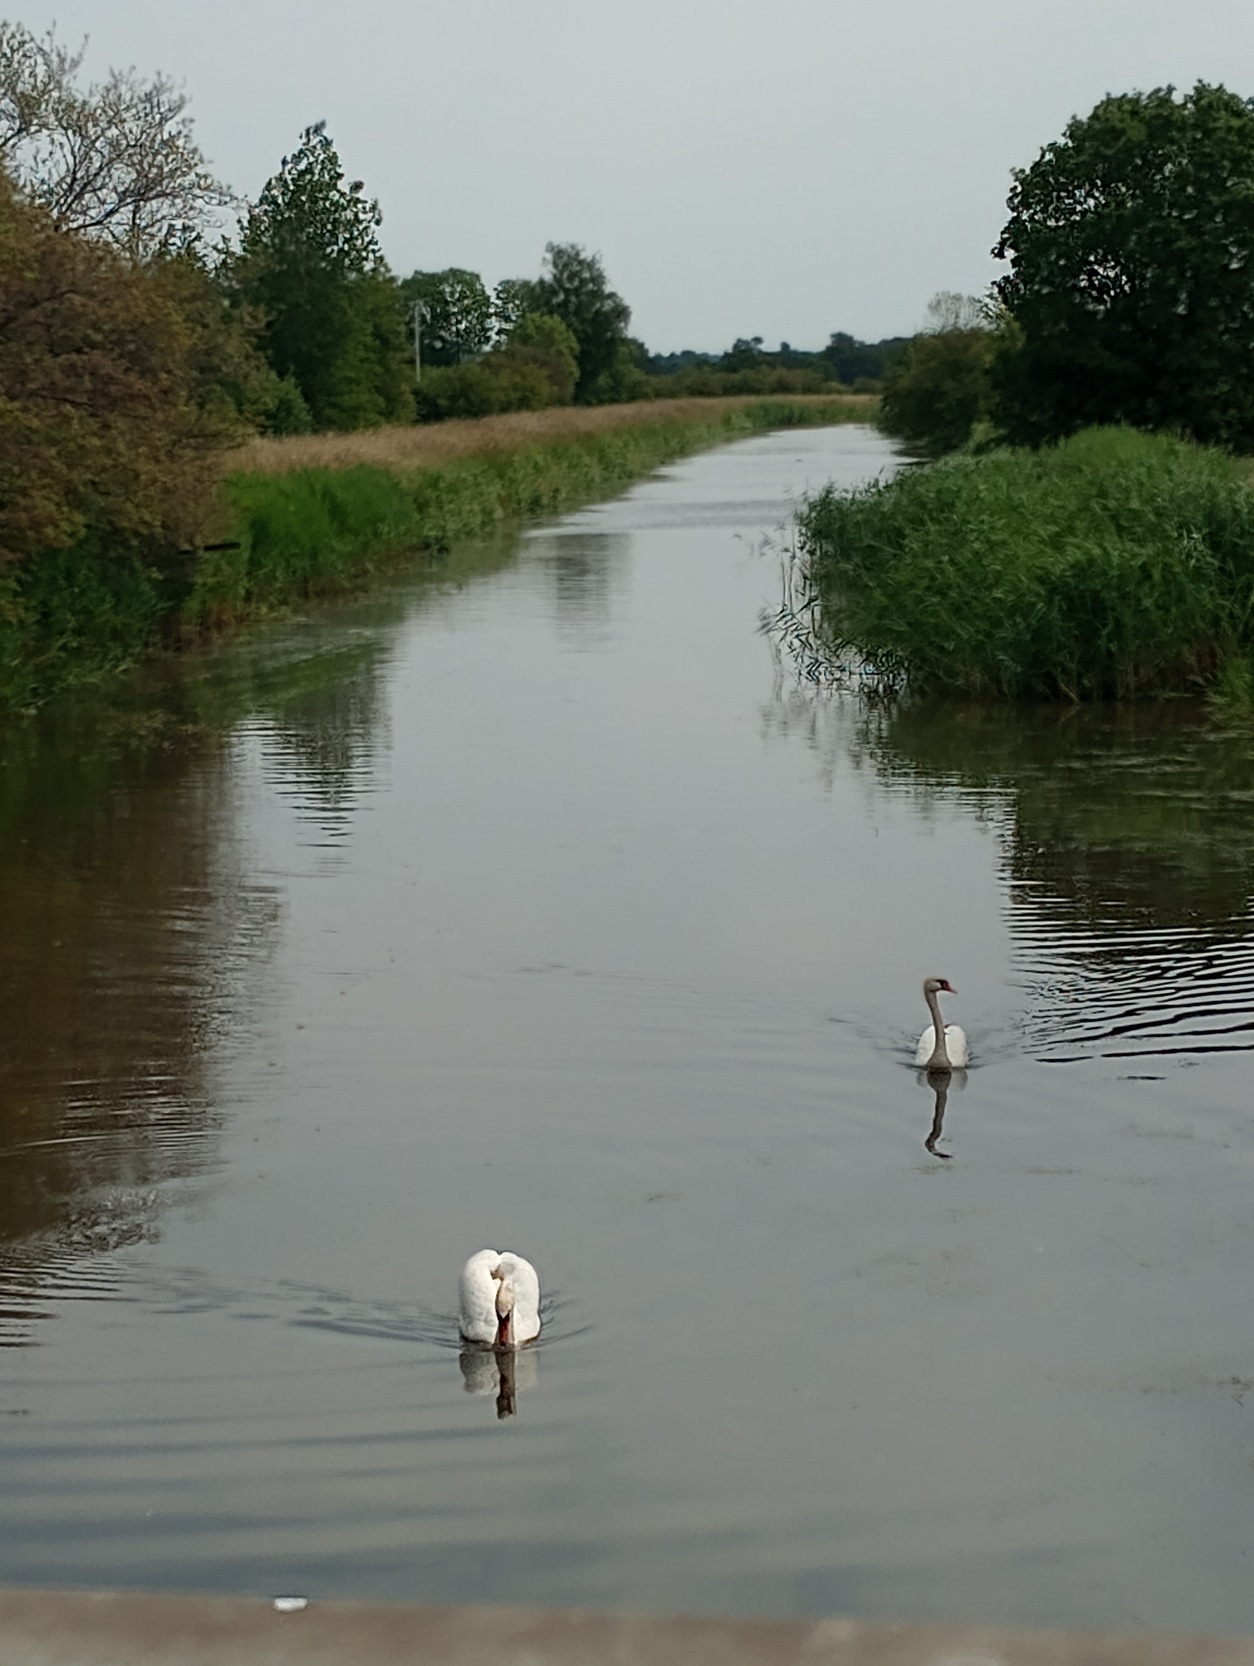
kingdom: Animalia
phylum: Chordata
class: Aves
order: Anseriformes
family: Anatidae
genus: Cygnus
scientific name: Cygnus olor
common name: Knopsvane
